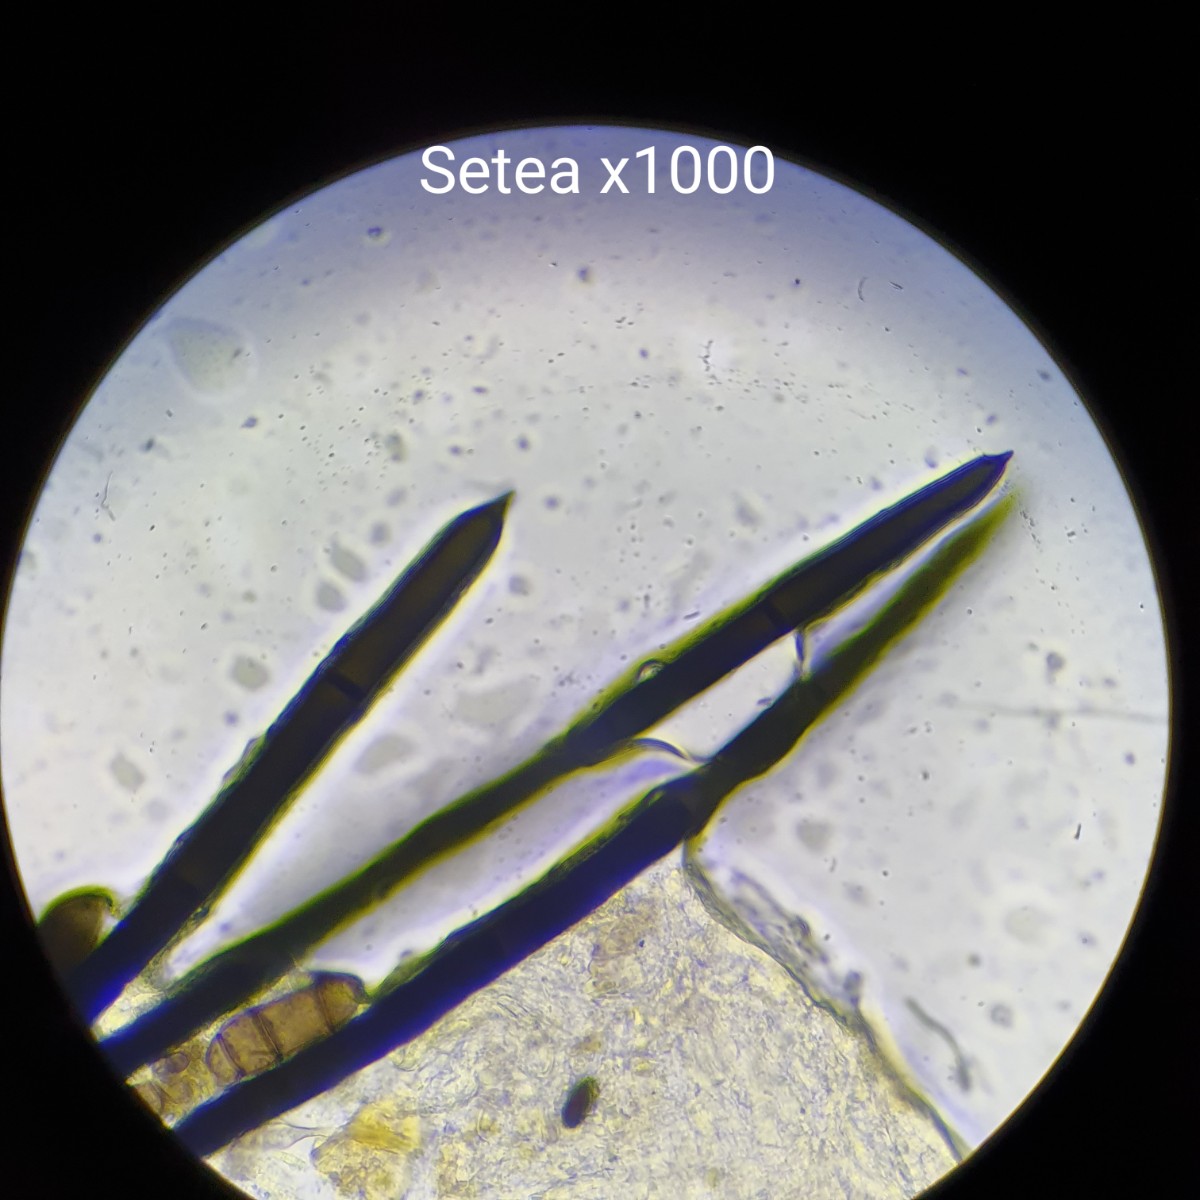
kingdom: Fungi
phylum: Ascomycota
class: Sordariomycetes
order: Coronophorales
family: Chaetosphaerellaceae
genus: Chaetosphaerella
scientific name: Chaetosphaerella phaeostroma
